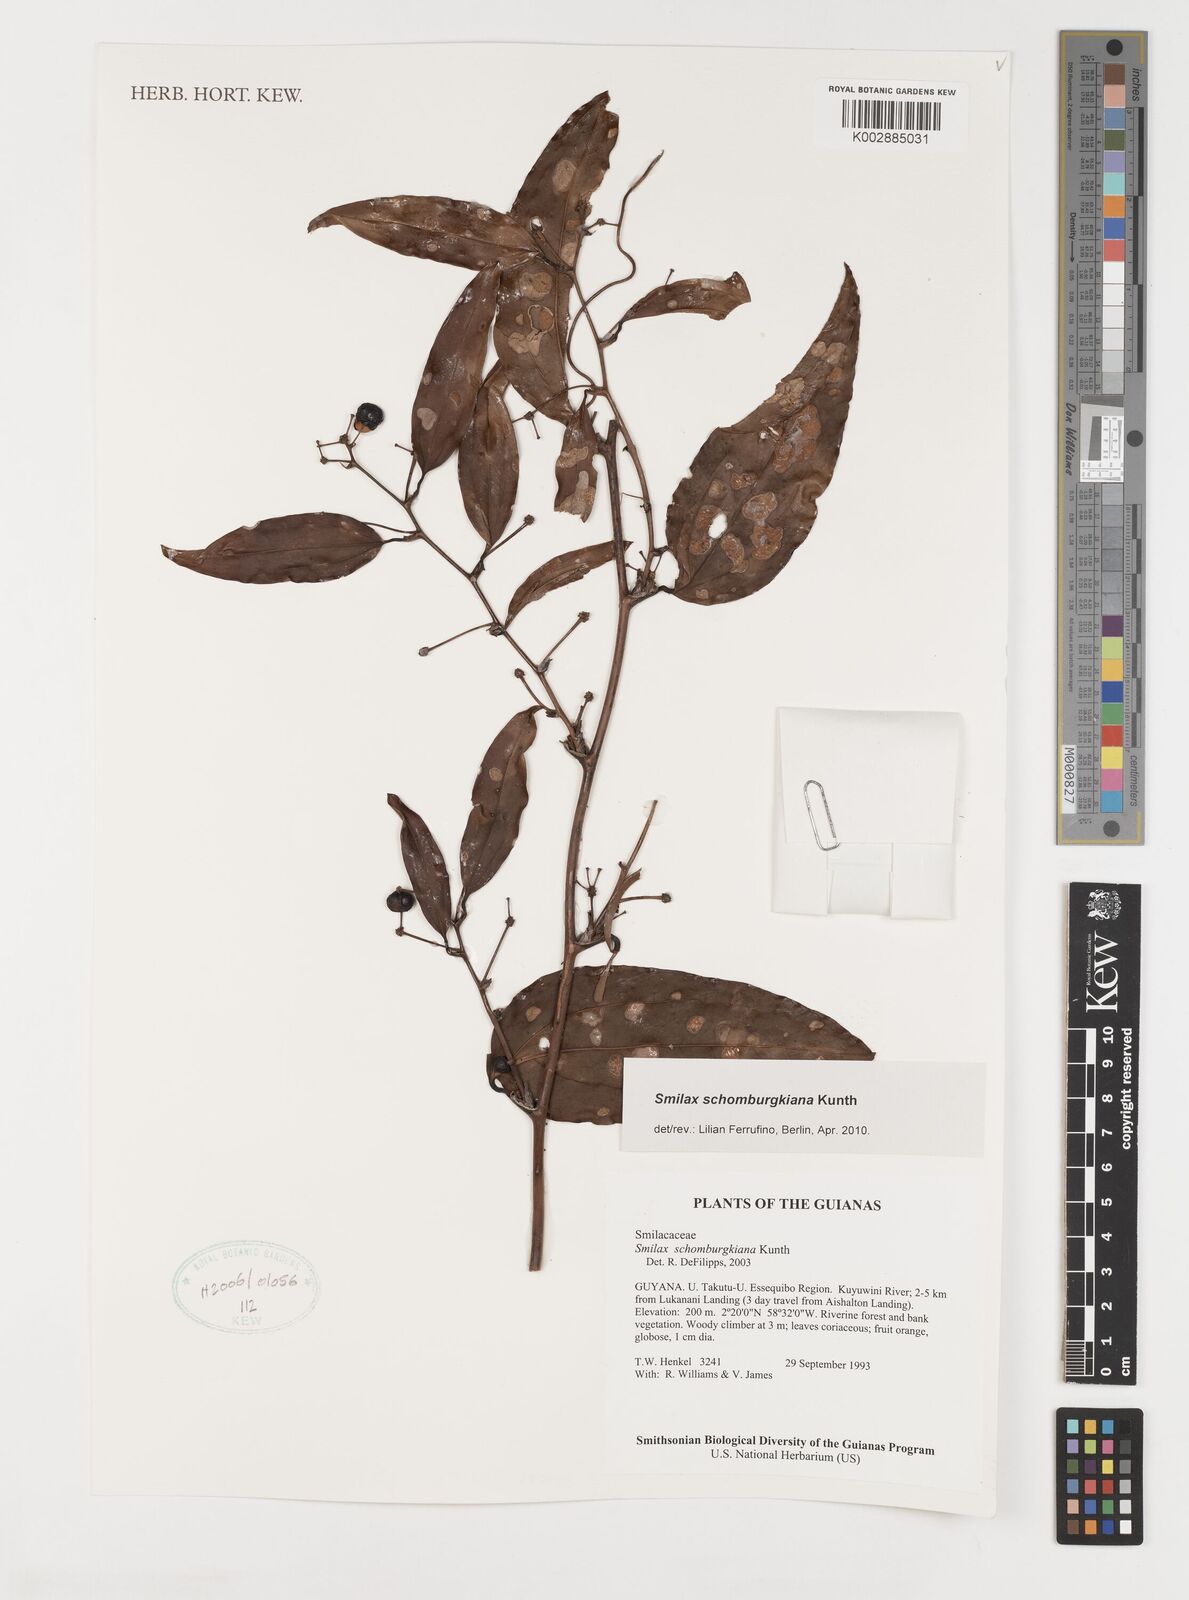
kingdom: Plantae
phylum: Tracheophyta
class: Liliopsida
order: Liliales
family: Smilacaceae
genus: Smilax
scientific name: Smilax schomburgkiana
